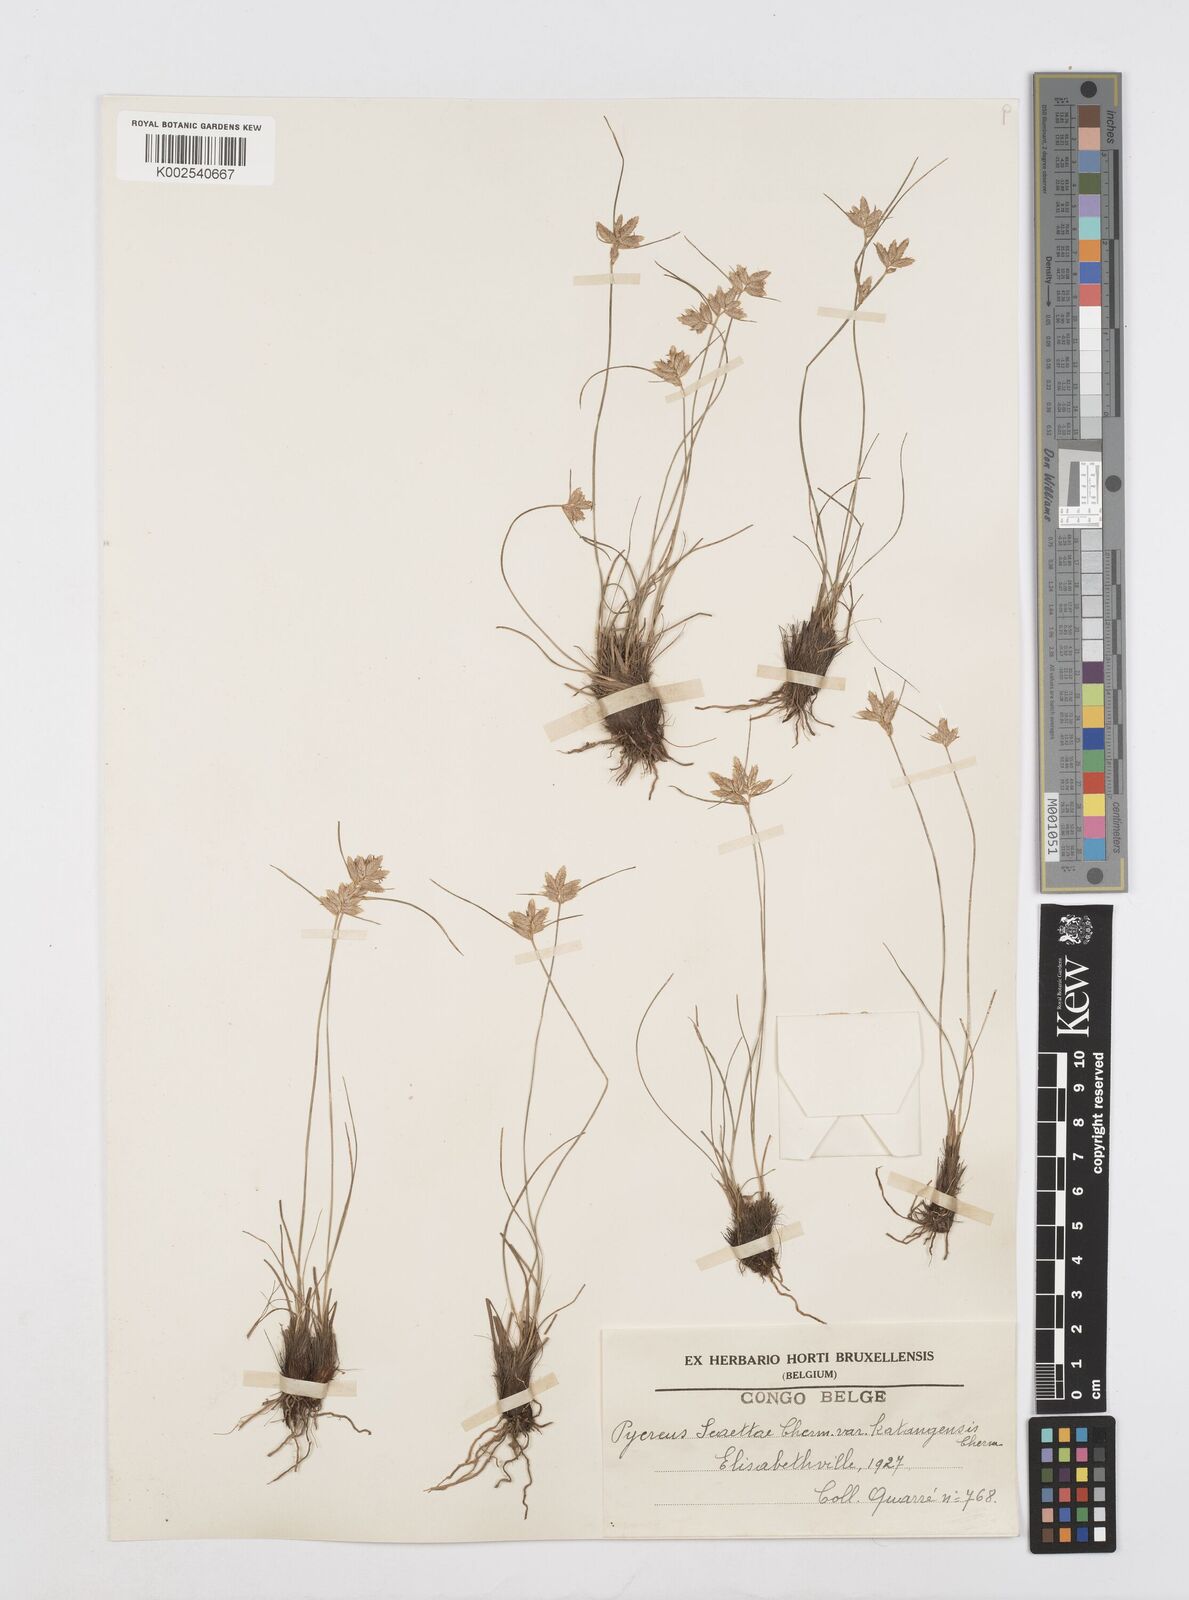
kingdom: Plantae
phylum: Tracheophyta
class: Liliopsida
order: Poales
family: Cyperaceae
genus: Cyperus
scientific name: Cyperus
